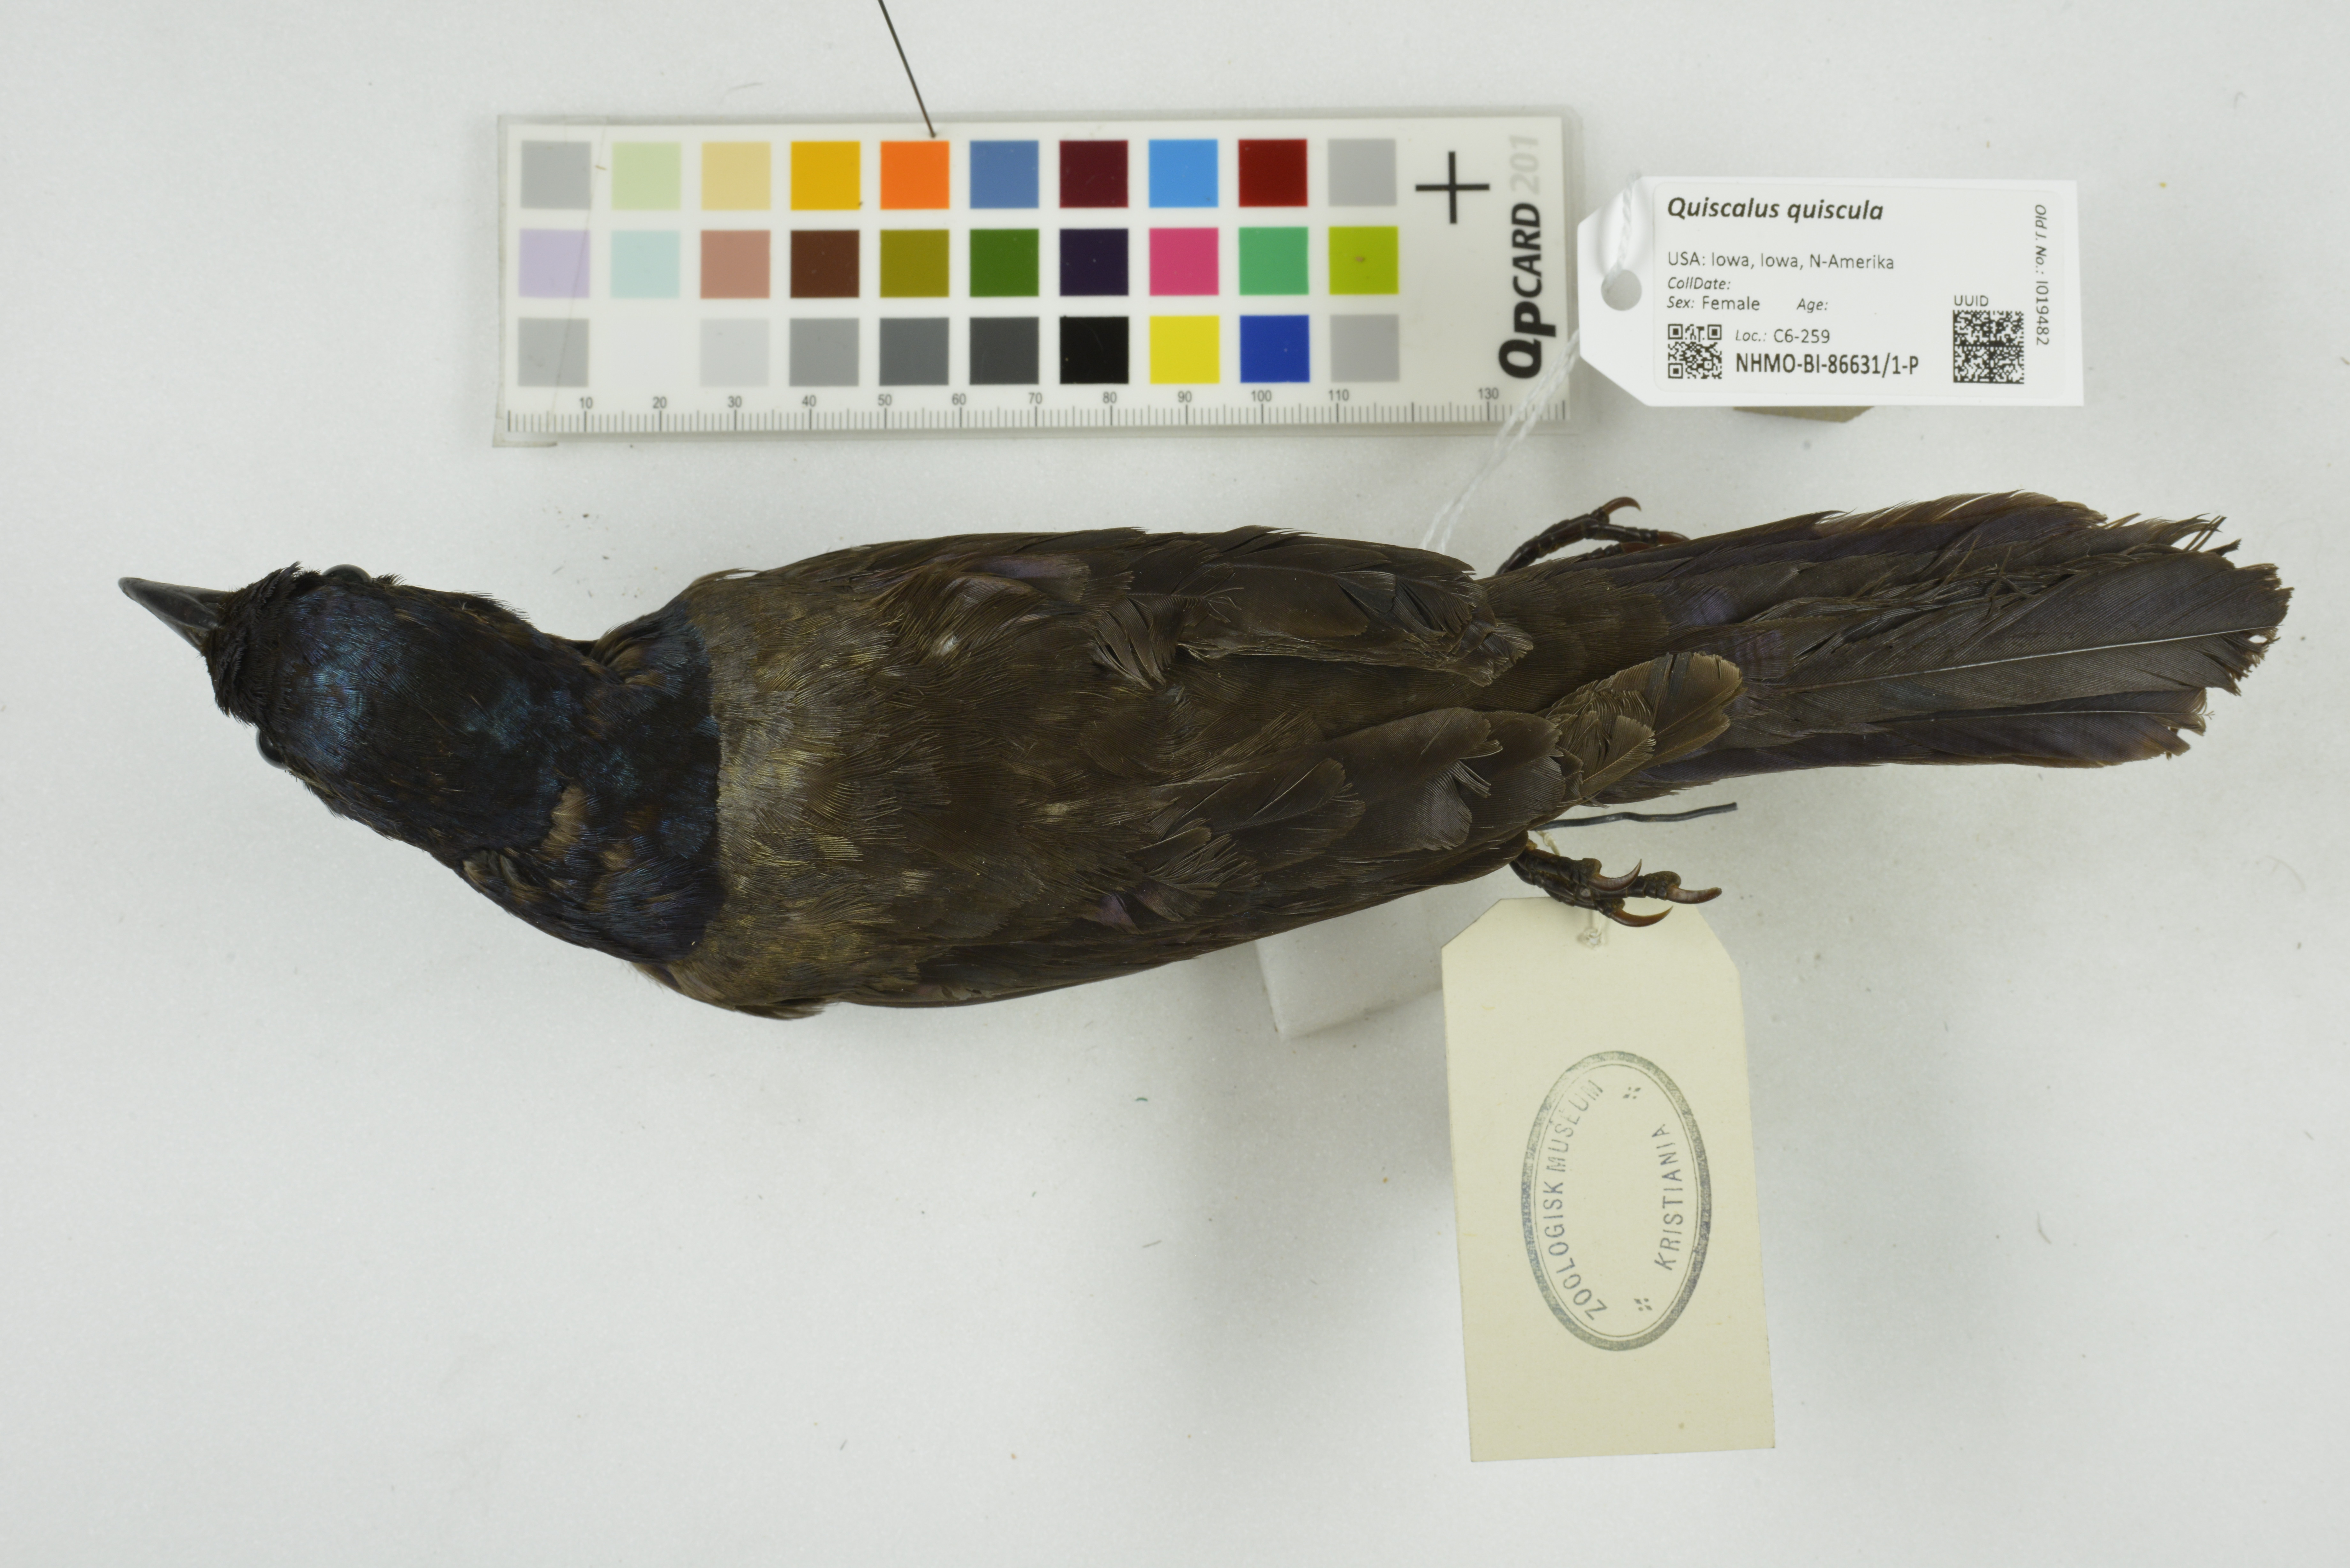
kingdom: Animalia
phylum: Chordata
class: Aves
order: Passeriformes
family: Icteridae
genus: Quiscalus
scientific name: Quiscalus quiscula
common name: Common grackle
